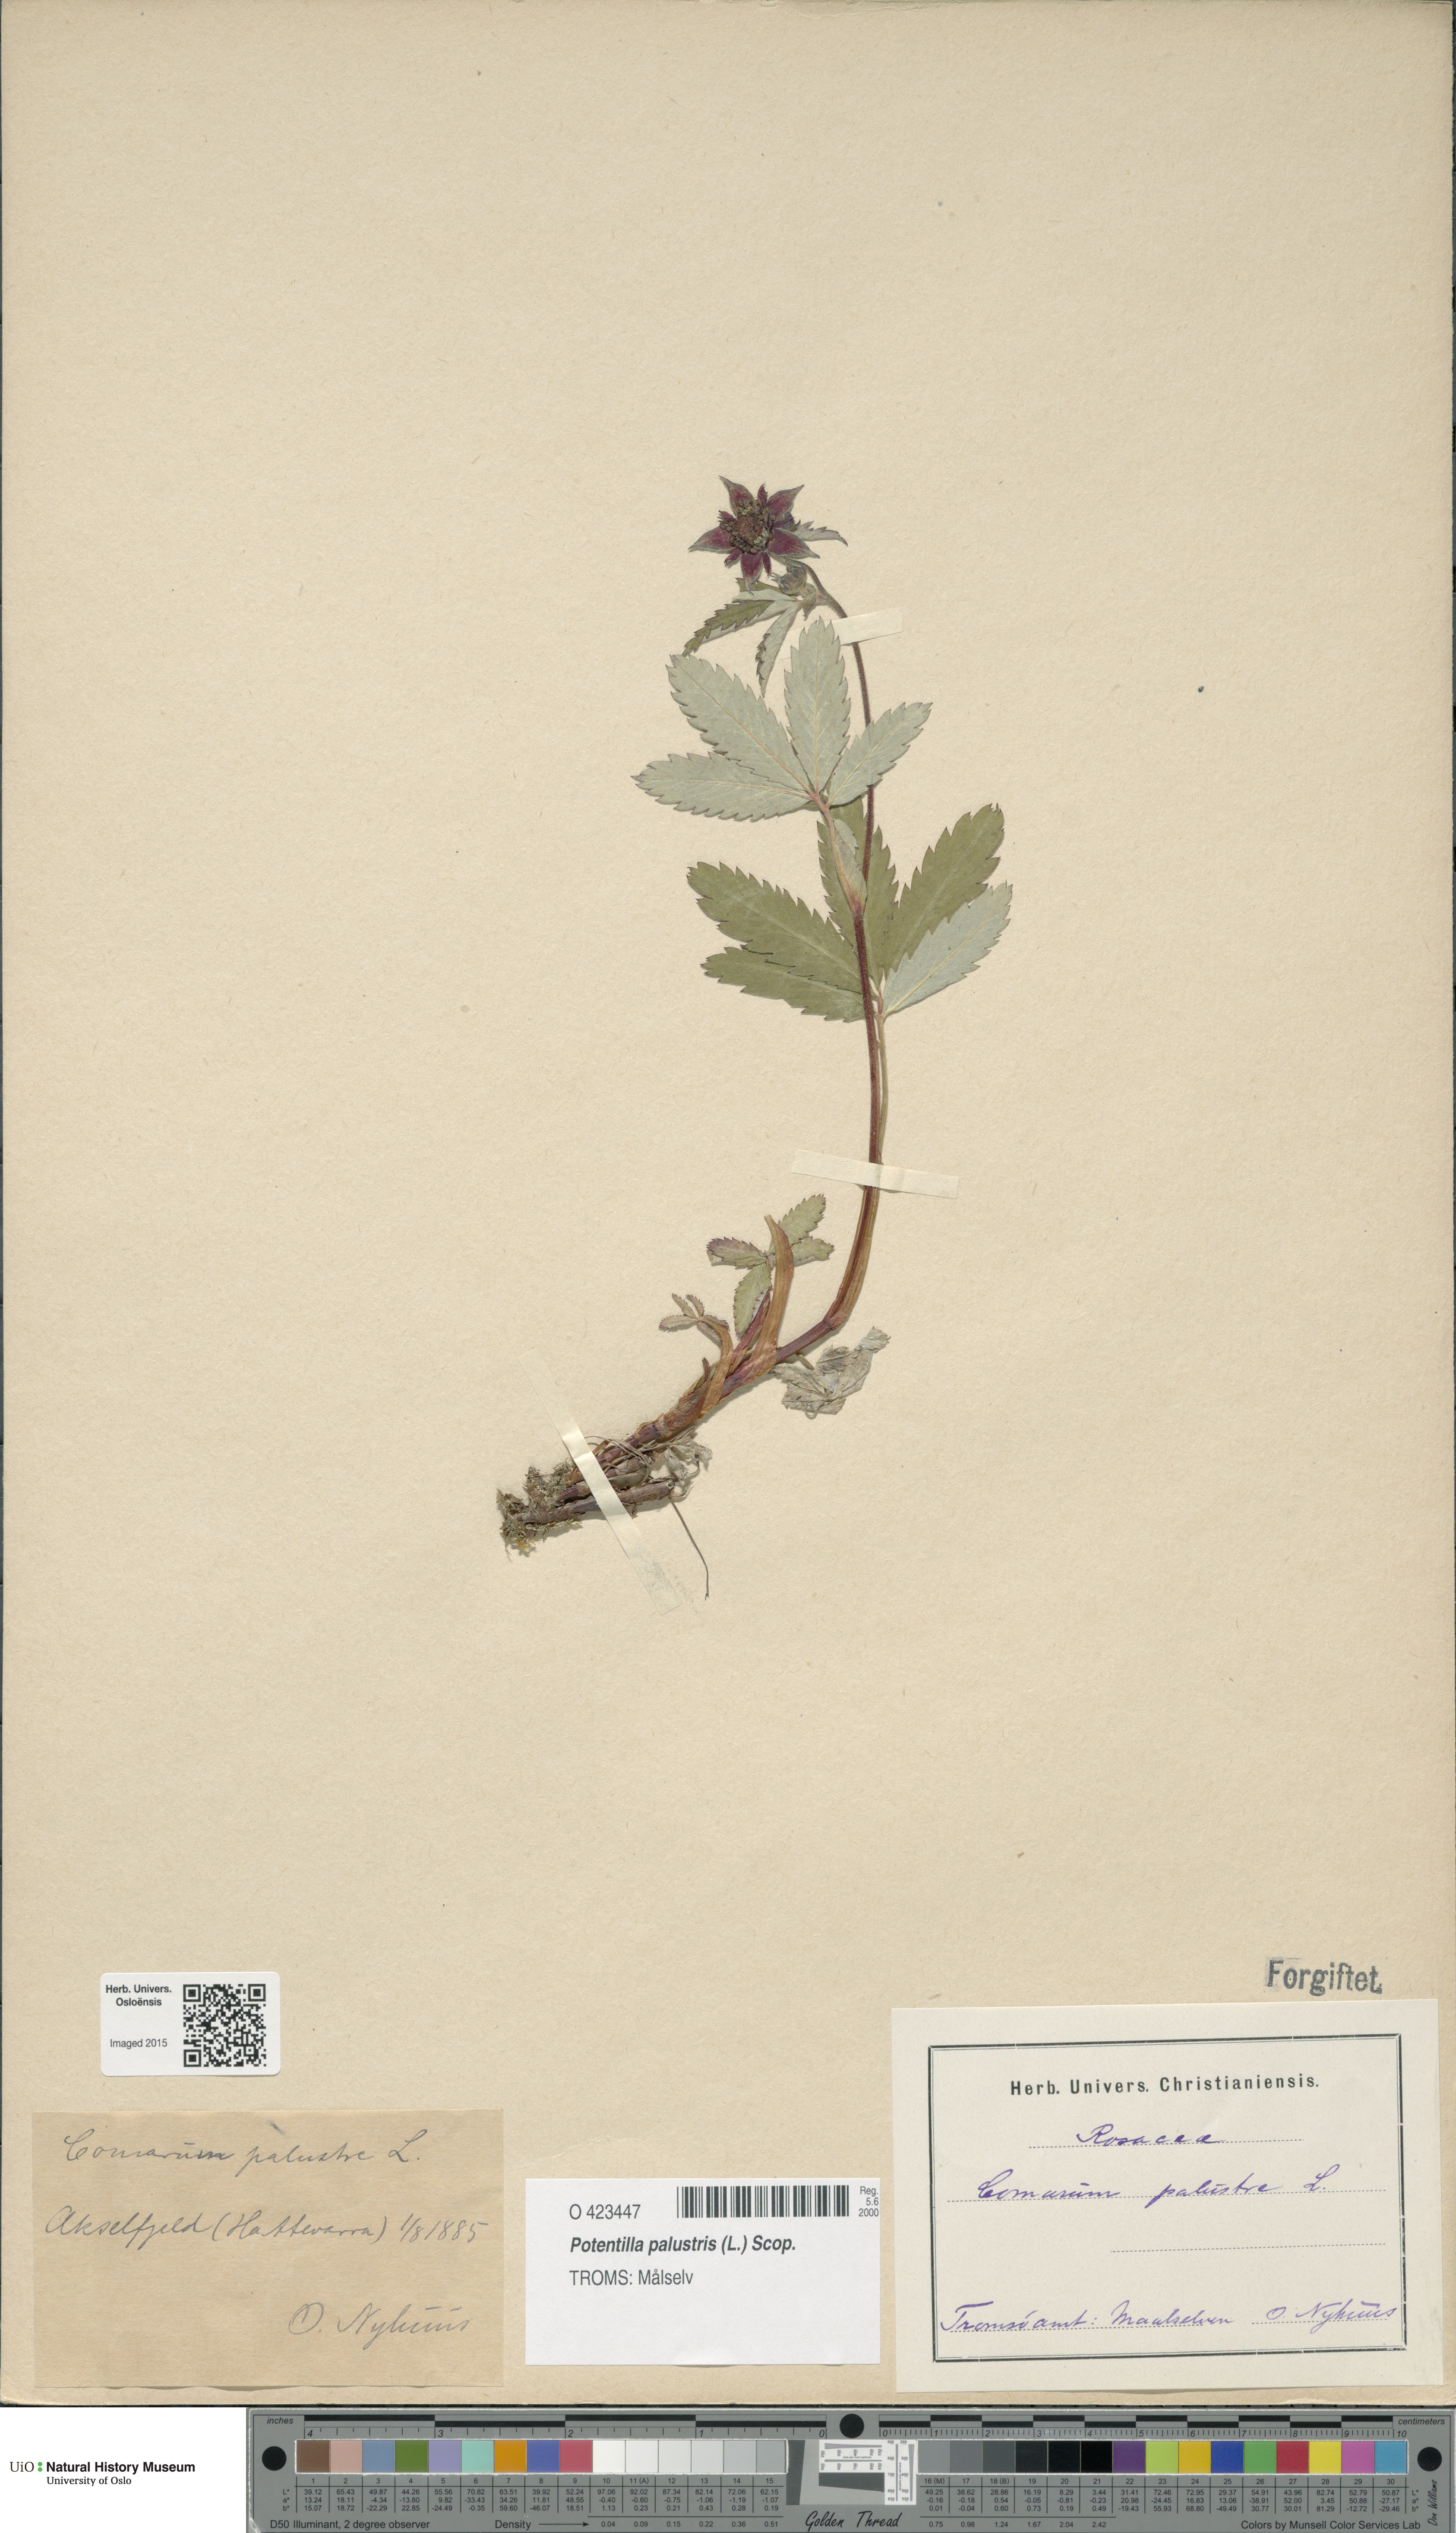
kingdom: Plantae
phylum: Tracheophyta
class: Magnoliopsida
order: Rosales
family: Rosaceae
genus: Comarum
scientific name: Comarum palustre
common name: Marsh cinquefoil
